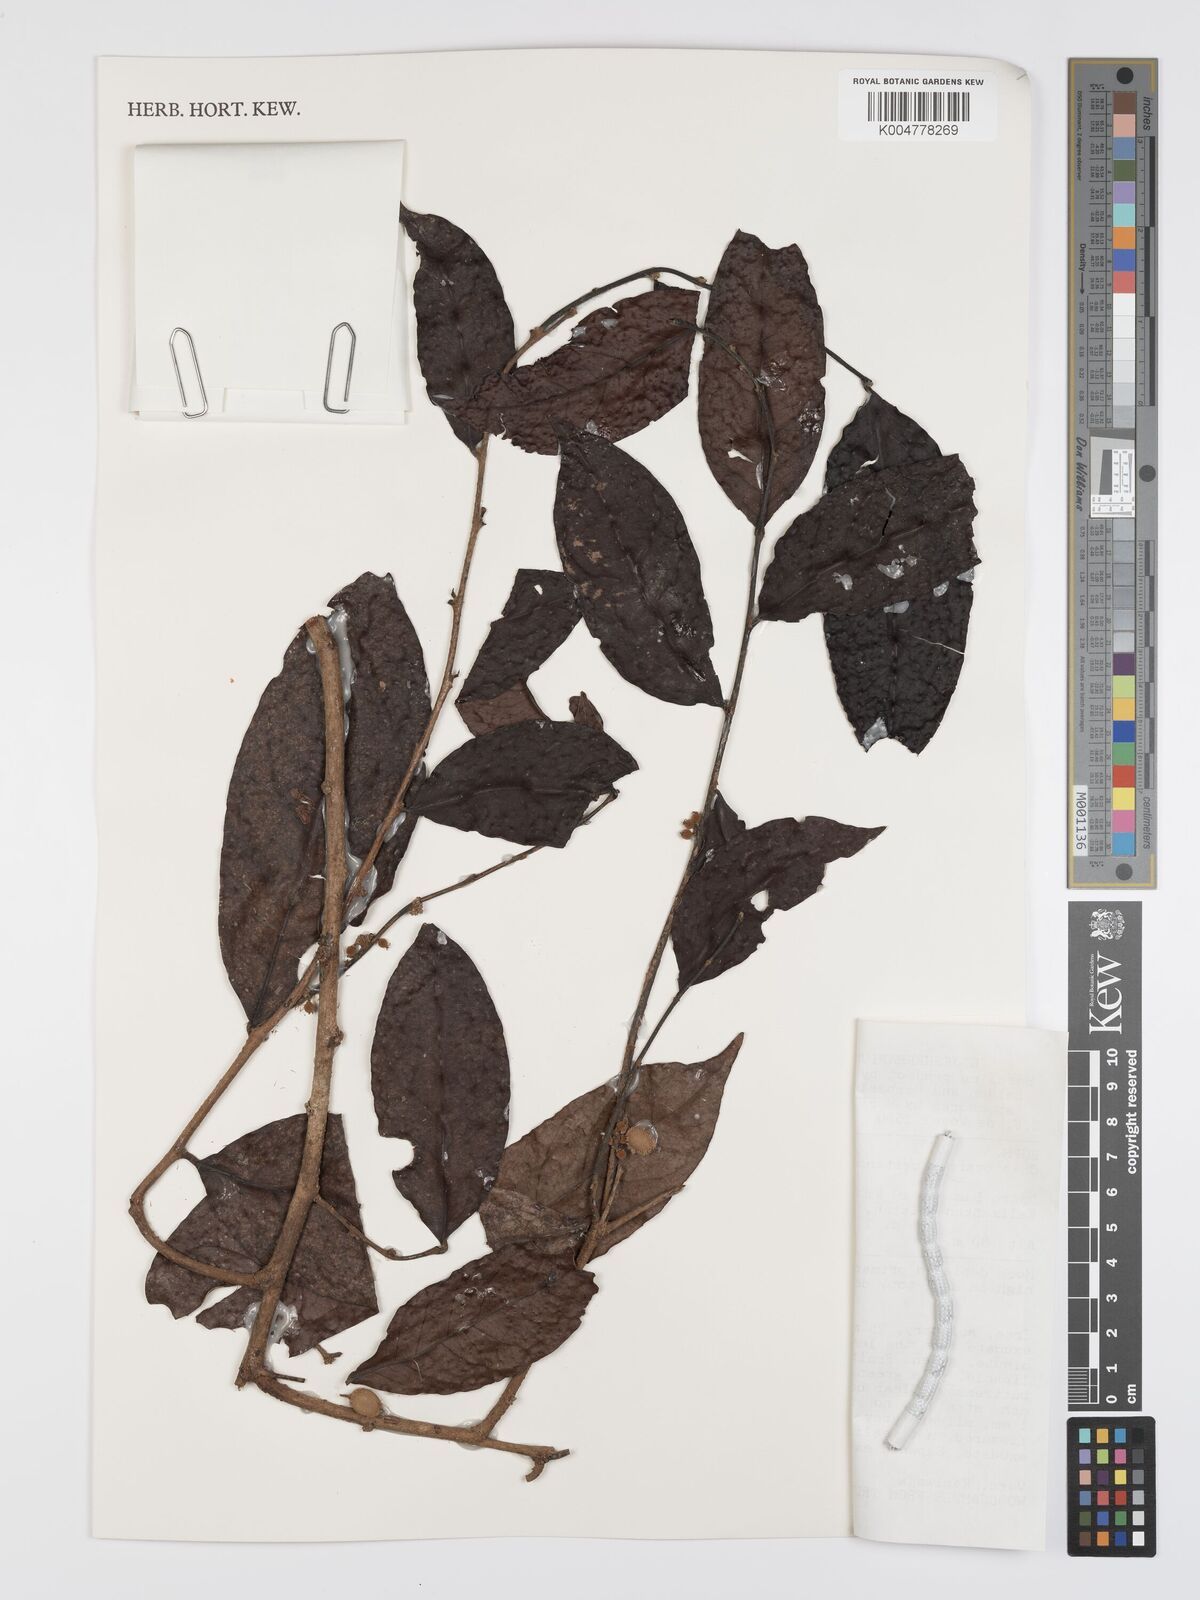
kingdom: Plantae
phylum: Tracheophyta
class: Magnoliopsida
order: Malpighiales
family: Peraceae
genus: Chaetocarpus
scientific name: Chaetocarpus castanocarpus
